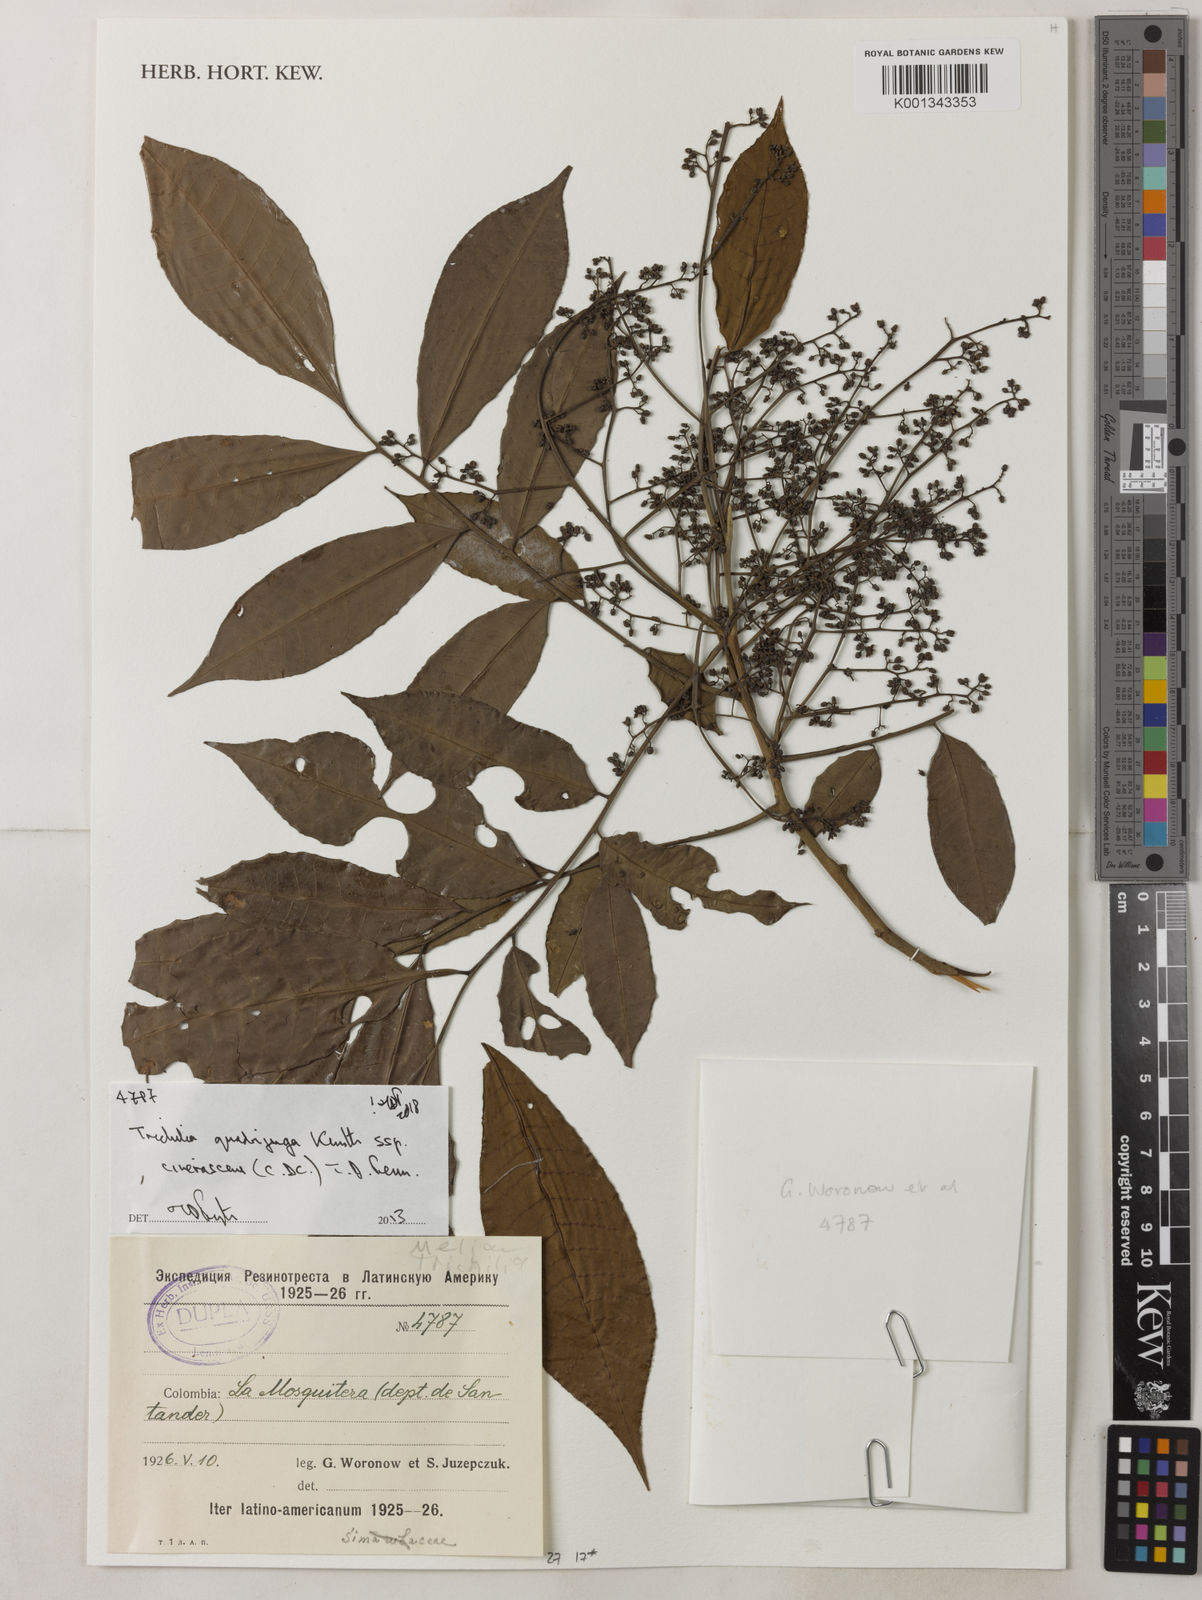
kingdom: Plantae
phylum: Tracheophyta
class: Magnoliopsida
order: Sapindales
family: Meliaceae
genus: Trichilia
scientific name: Trichilia
